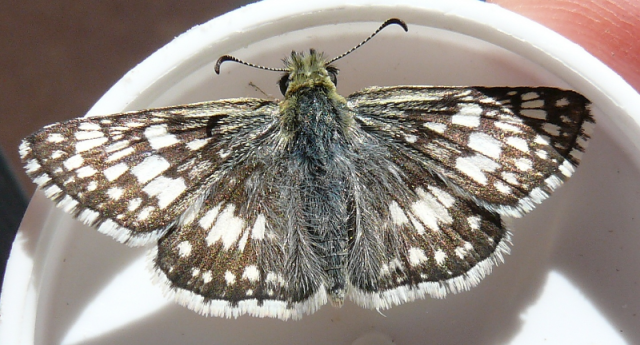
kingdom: Animalia
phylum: Arthropoda
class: Insecta
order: Lepidoptera
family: Hesperiidae
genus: Pyrgus
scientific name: Pyrgus communis
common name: Common Checkered-Skipper
